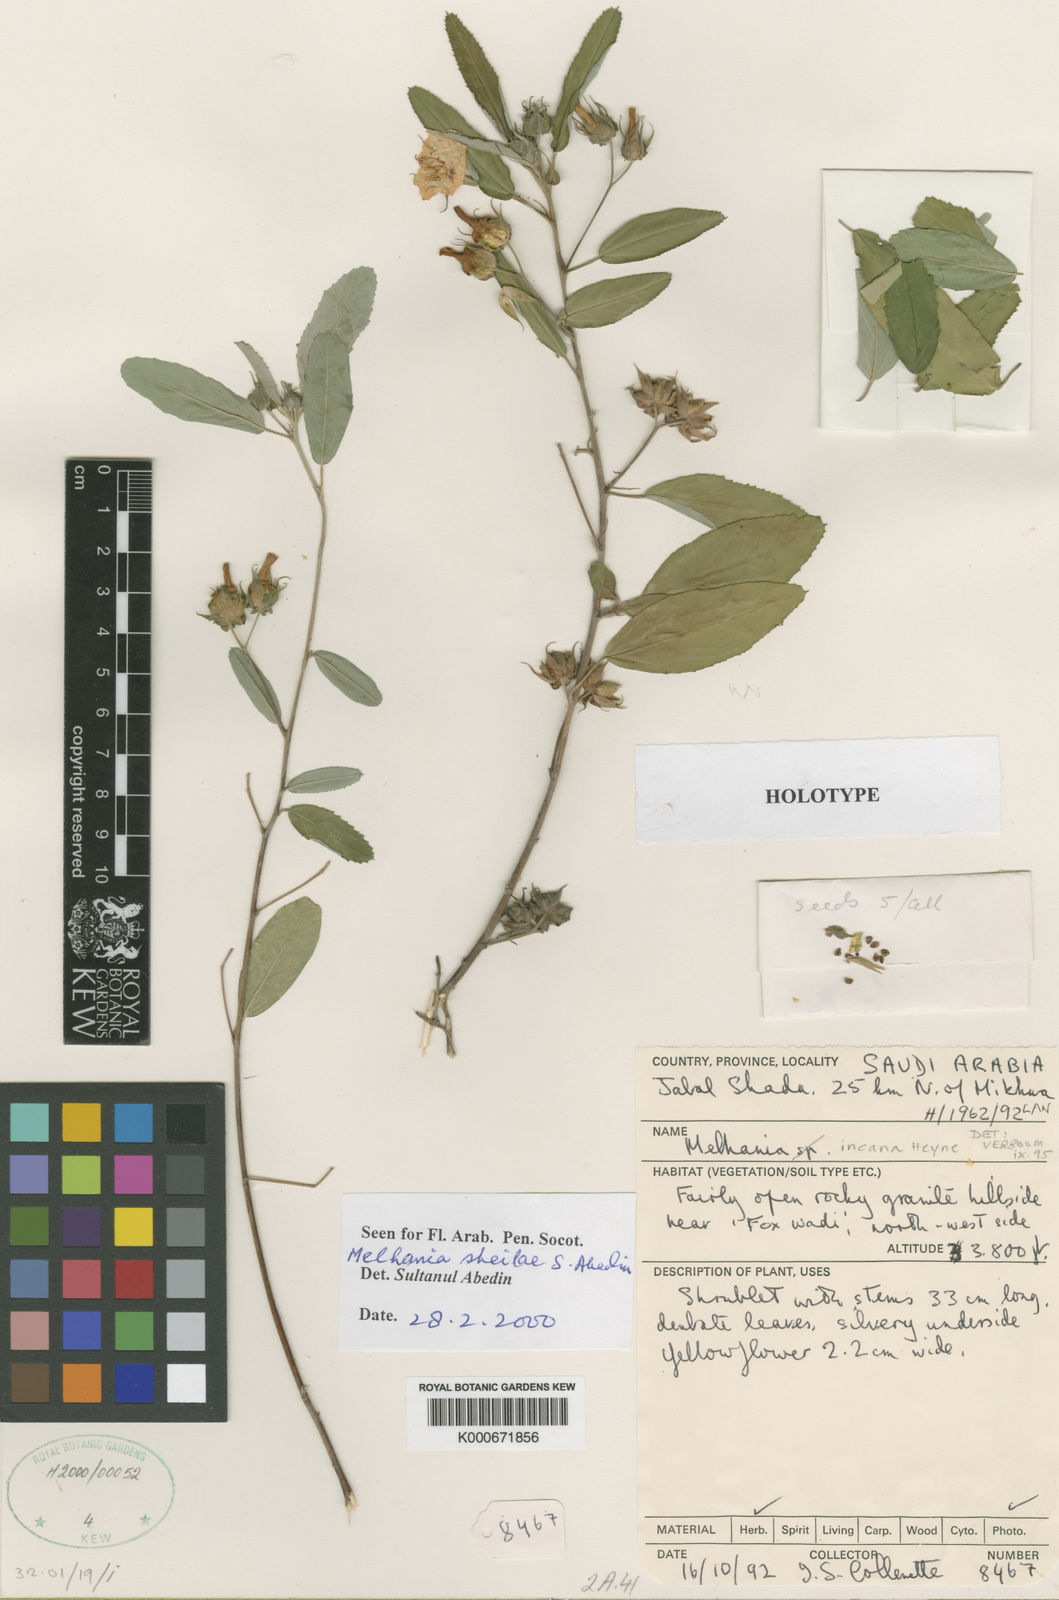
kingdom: Plantae
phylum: Tracheophyta
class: Magnoliopsida
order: Malvales
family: Malvaceae
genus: Melhania
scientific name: Melhania
